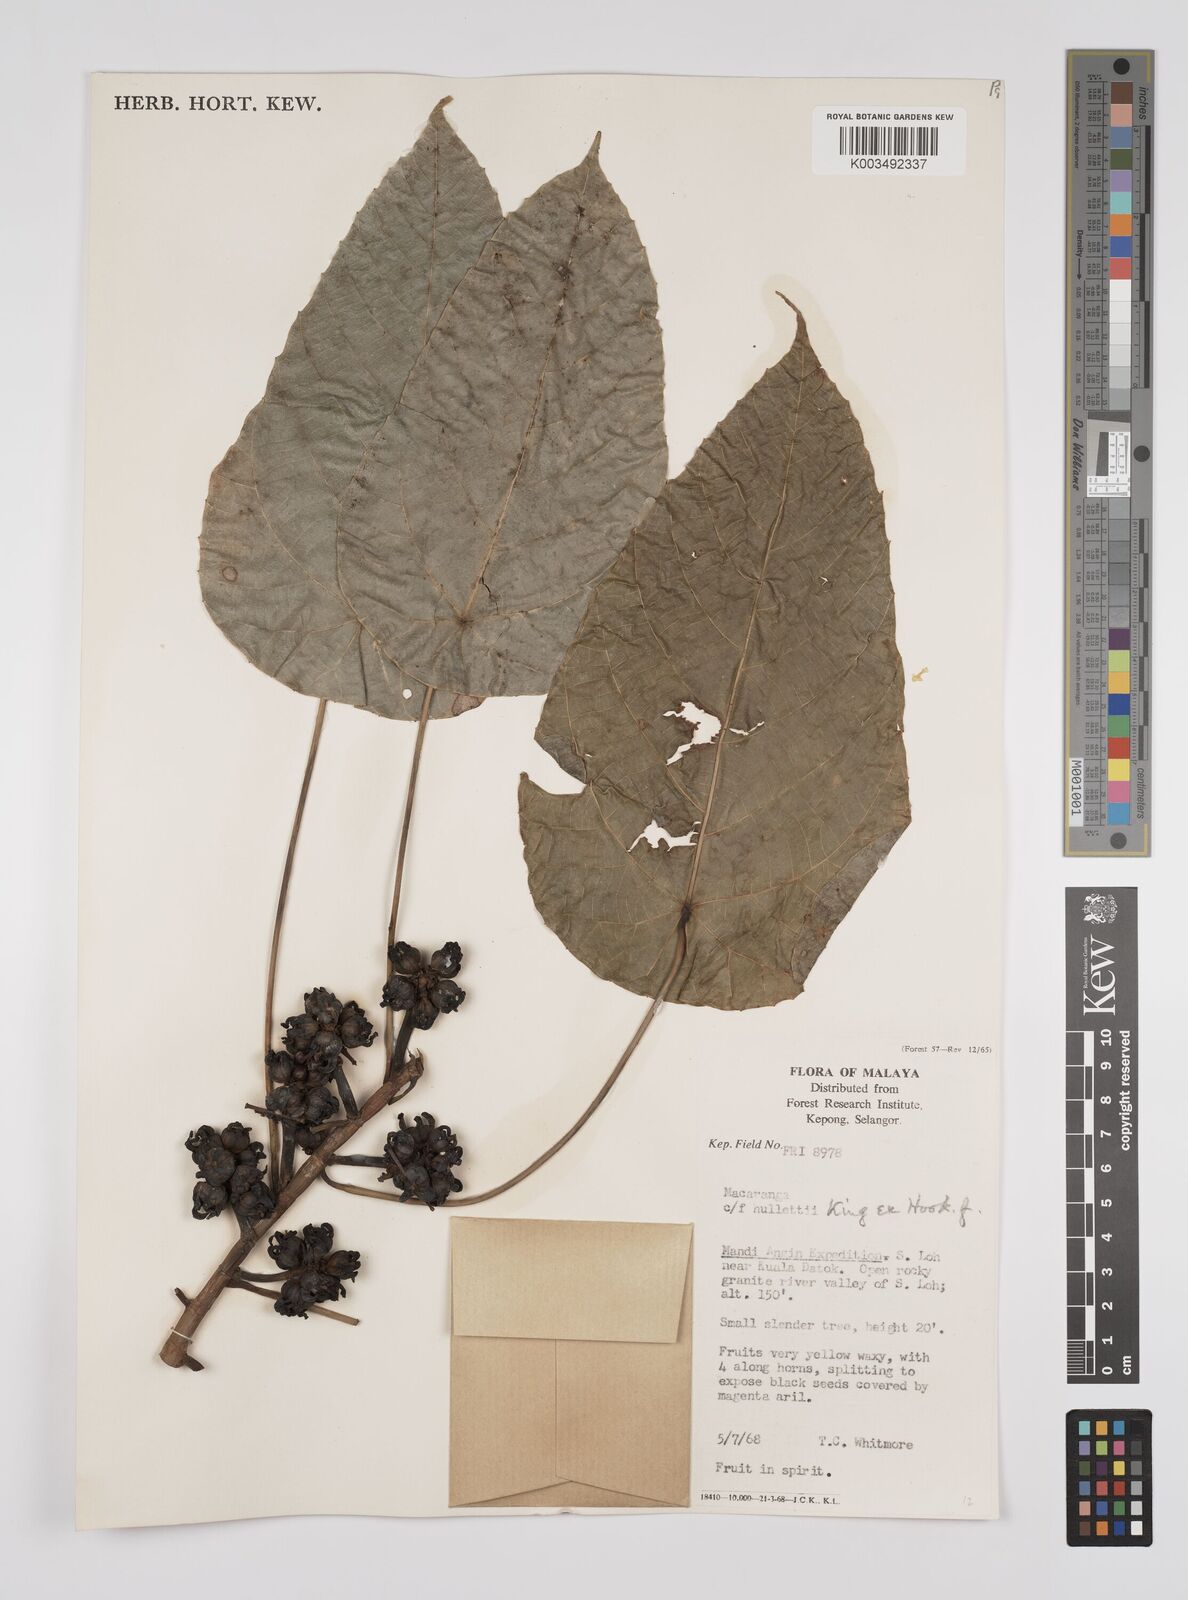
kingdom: Plantae
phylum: Tracheophyta
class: Magnoliopsida
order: Malpighiales
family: Euphorbiaceae
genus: Macaranga
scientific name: Macaranga hullettii
